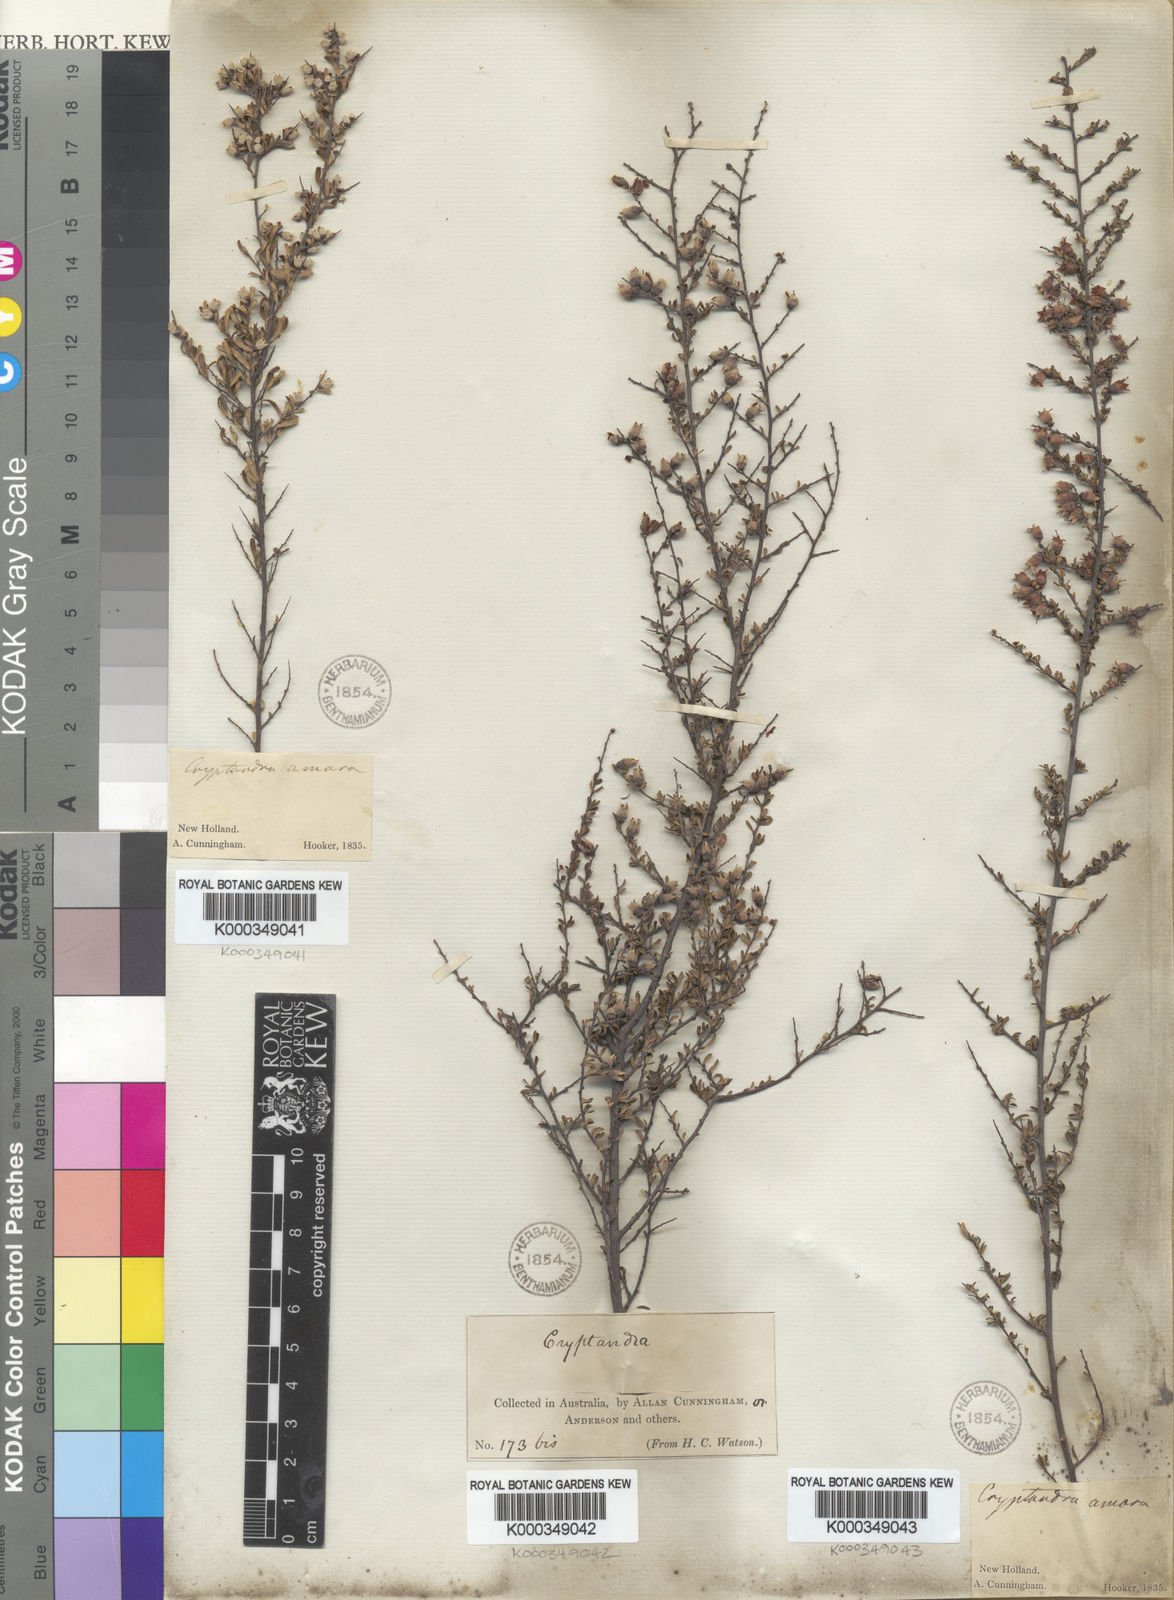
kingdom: Plantae
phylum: Tracheophyta
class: Magnoliopsida
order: Rosales
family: Rhamnaceae
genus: Cryptandra
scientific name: Cryptandra amara
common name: Bitter cryptandra
